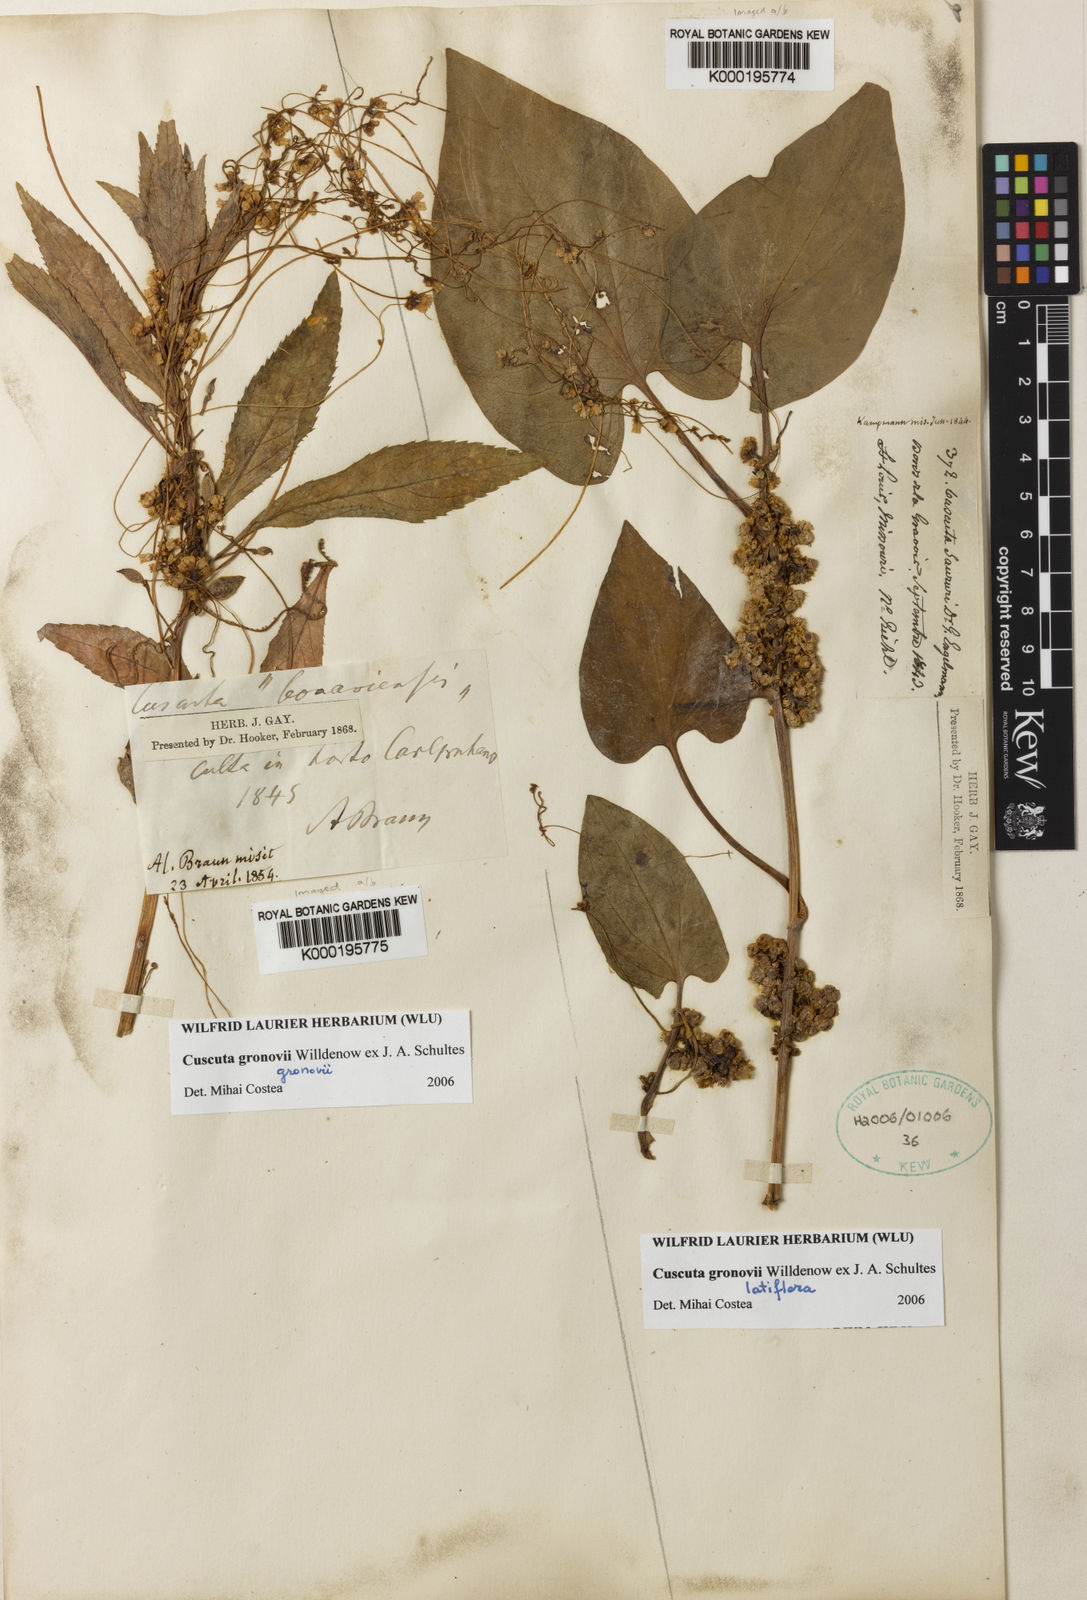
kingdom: Plantae
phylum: Tracheophyta
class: Magnoliopsida
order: Solanales
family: Convolvulaceae
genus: Cuscuta
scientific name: Cuscuta gronovii
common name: Common dodder
